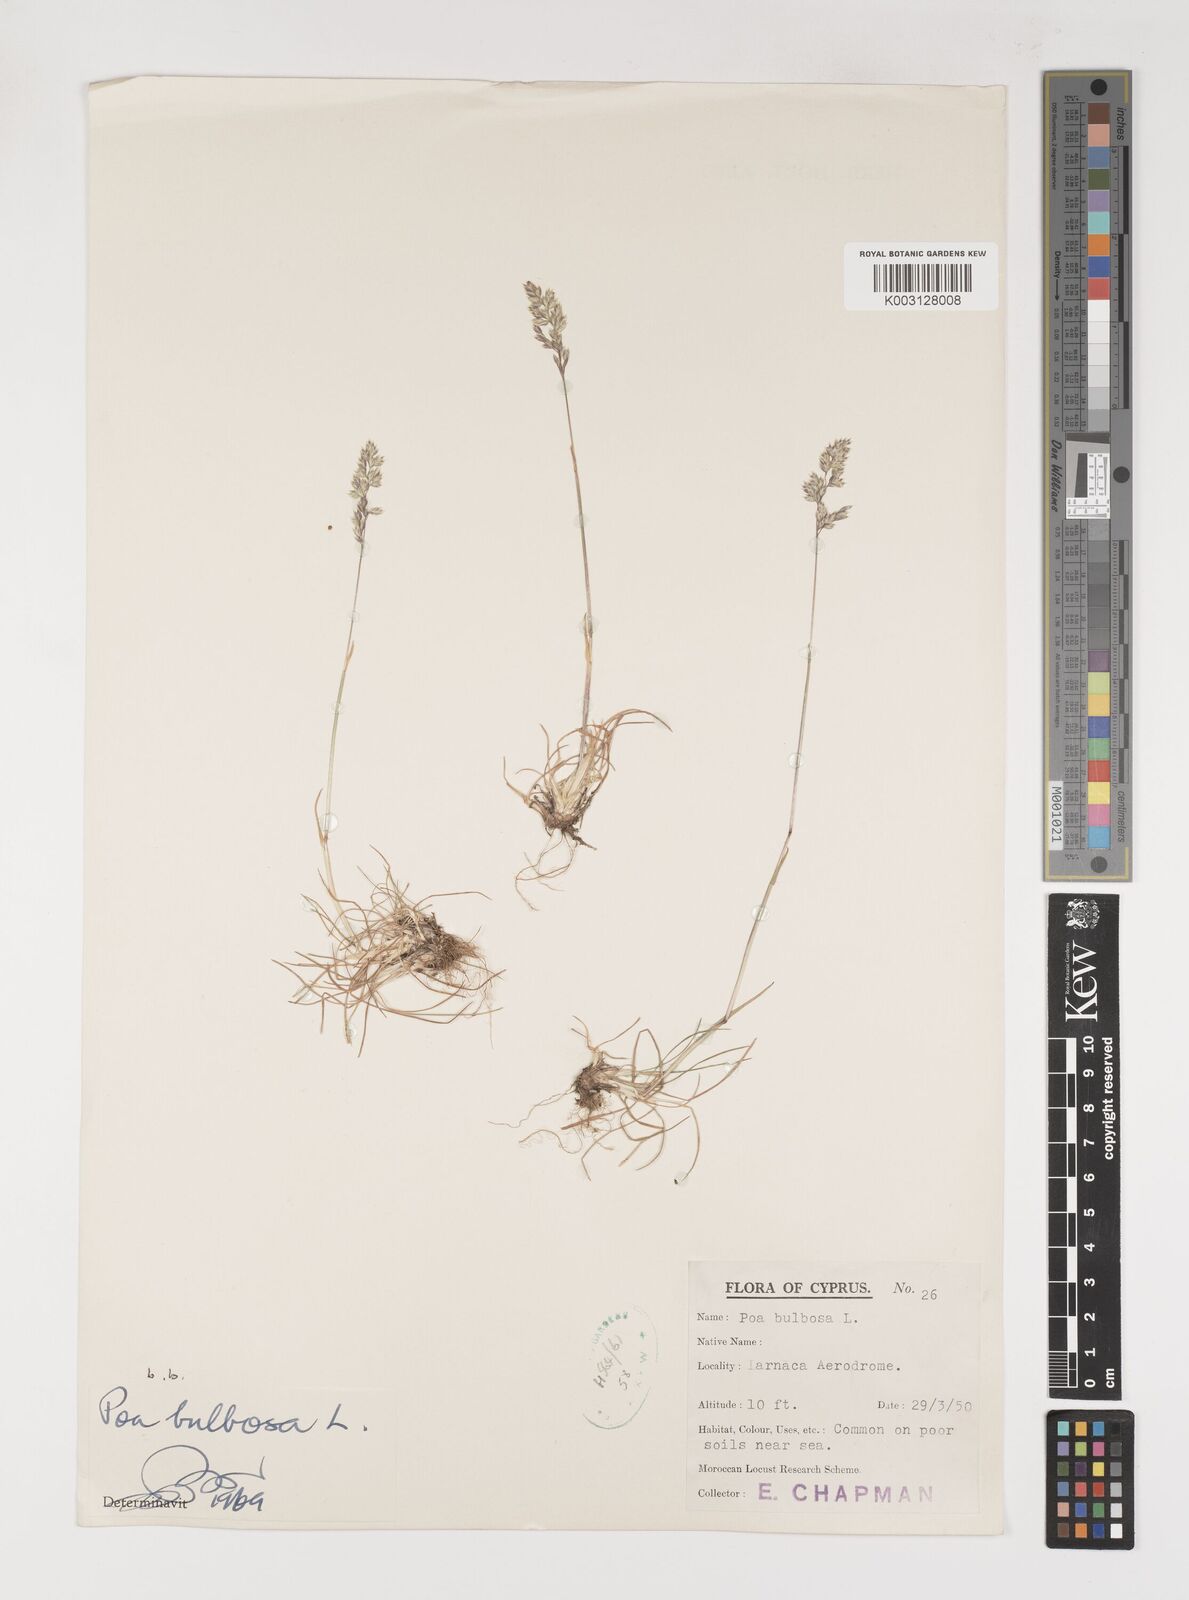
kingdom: Plantae
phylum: Tracheophyta
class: Liliopsida
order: Poales
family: Poaceae
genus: Poa
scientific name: Poa bulbosa
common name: Bulbous bluegrass
